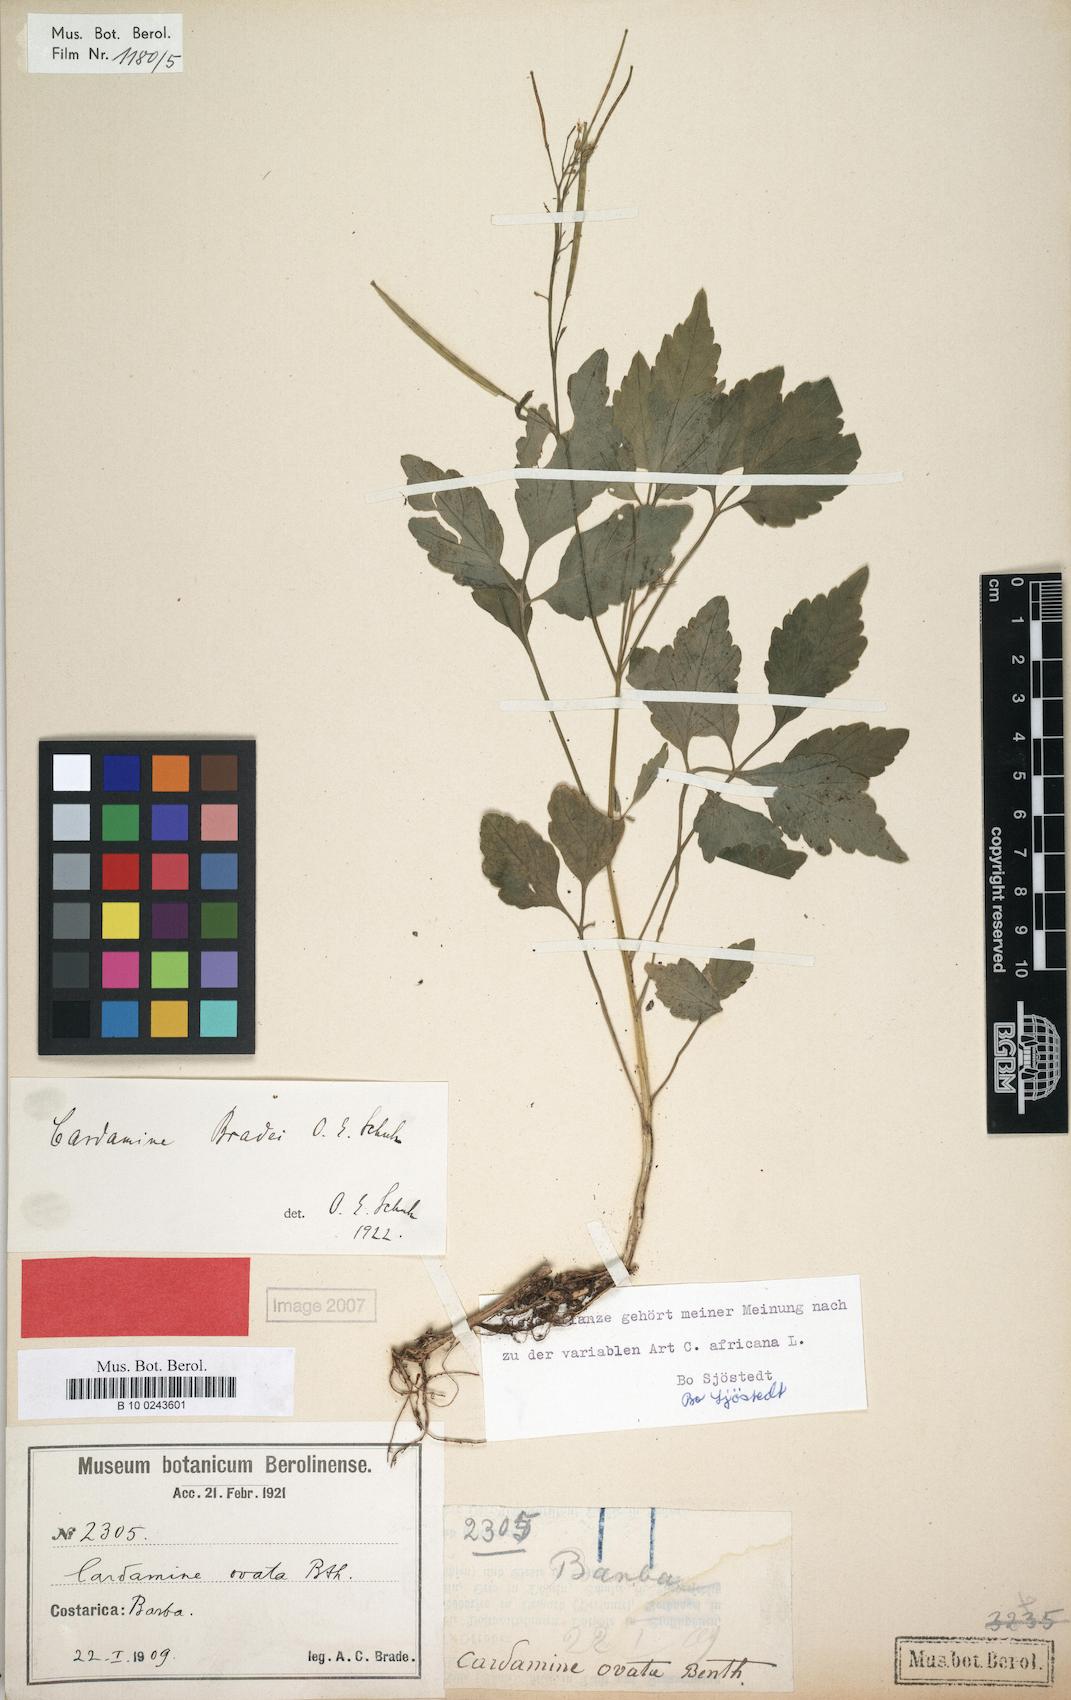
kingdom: Plantae
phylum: Tracheophyta
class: Magnoliopsida
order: Brassicales
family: Brassicaceae
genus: Cardamine
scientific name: Cardamine fulcrata
